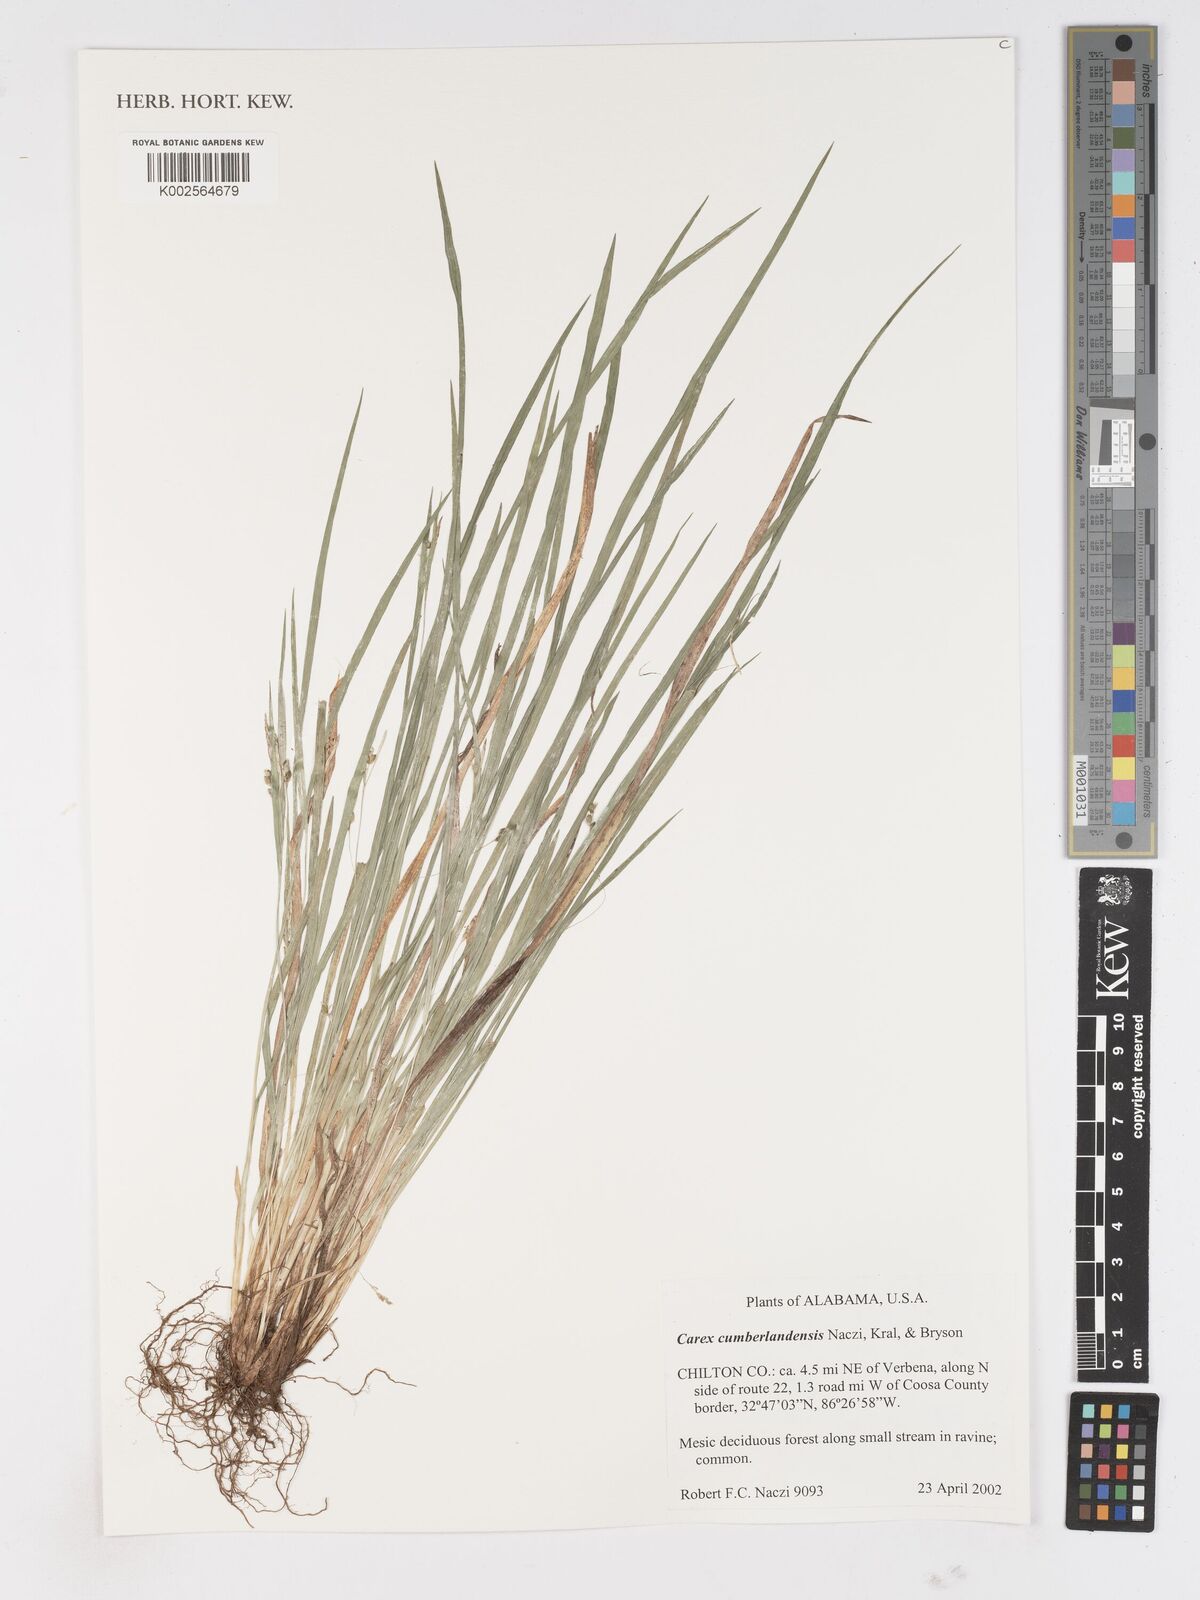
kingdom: Plantae
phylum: Tracheophyta
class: Liliopsida
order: Poales
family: Cyperaceae
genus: Carex
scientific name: Carex cumberlandensis
